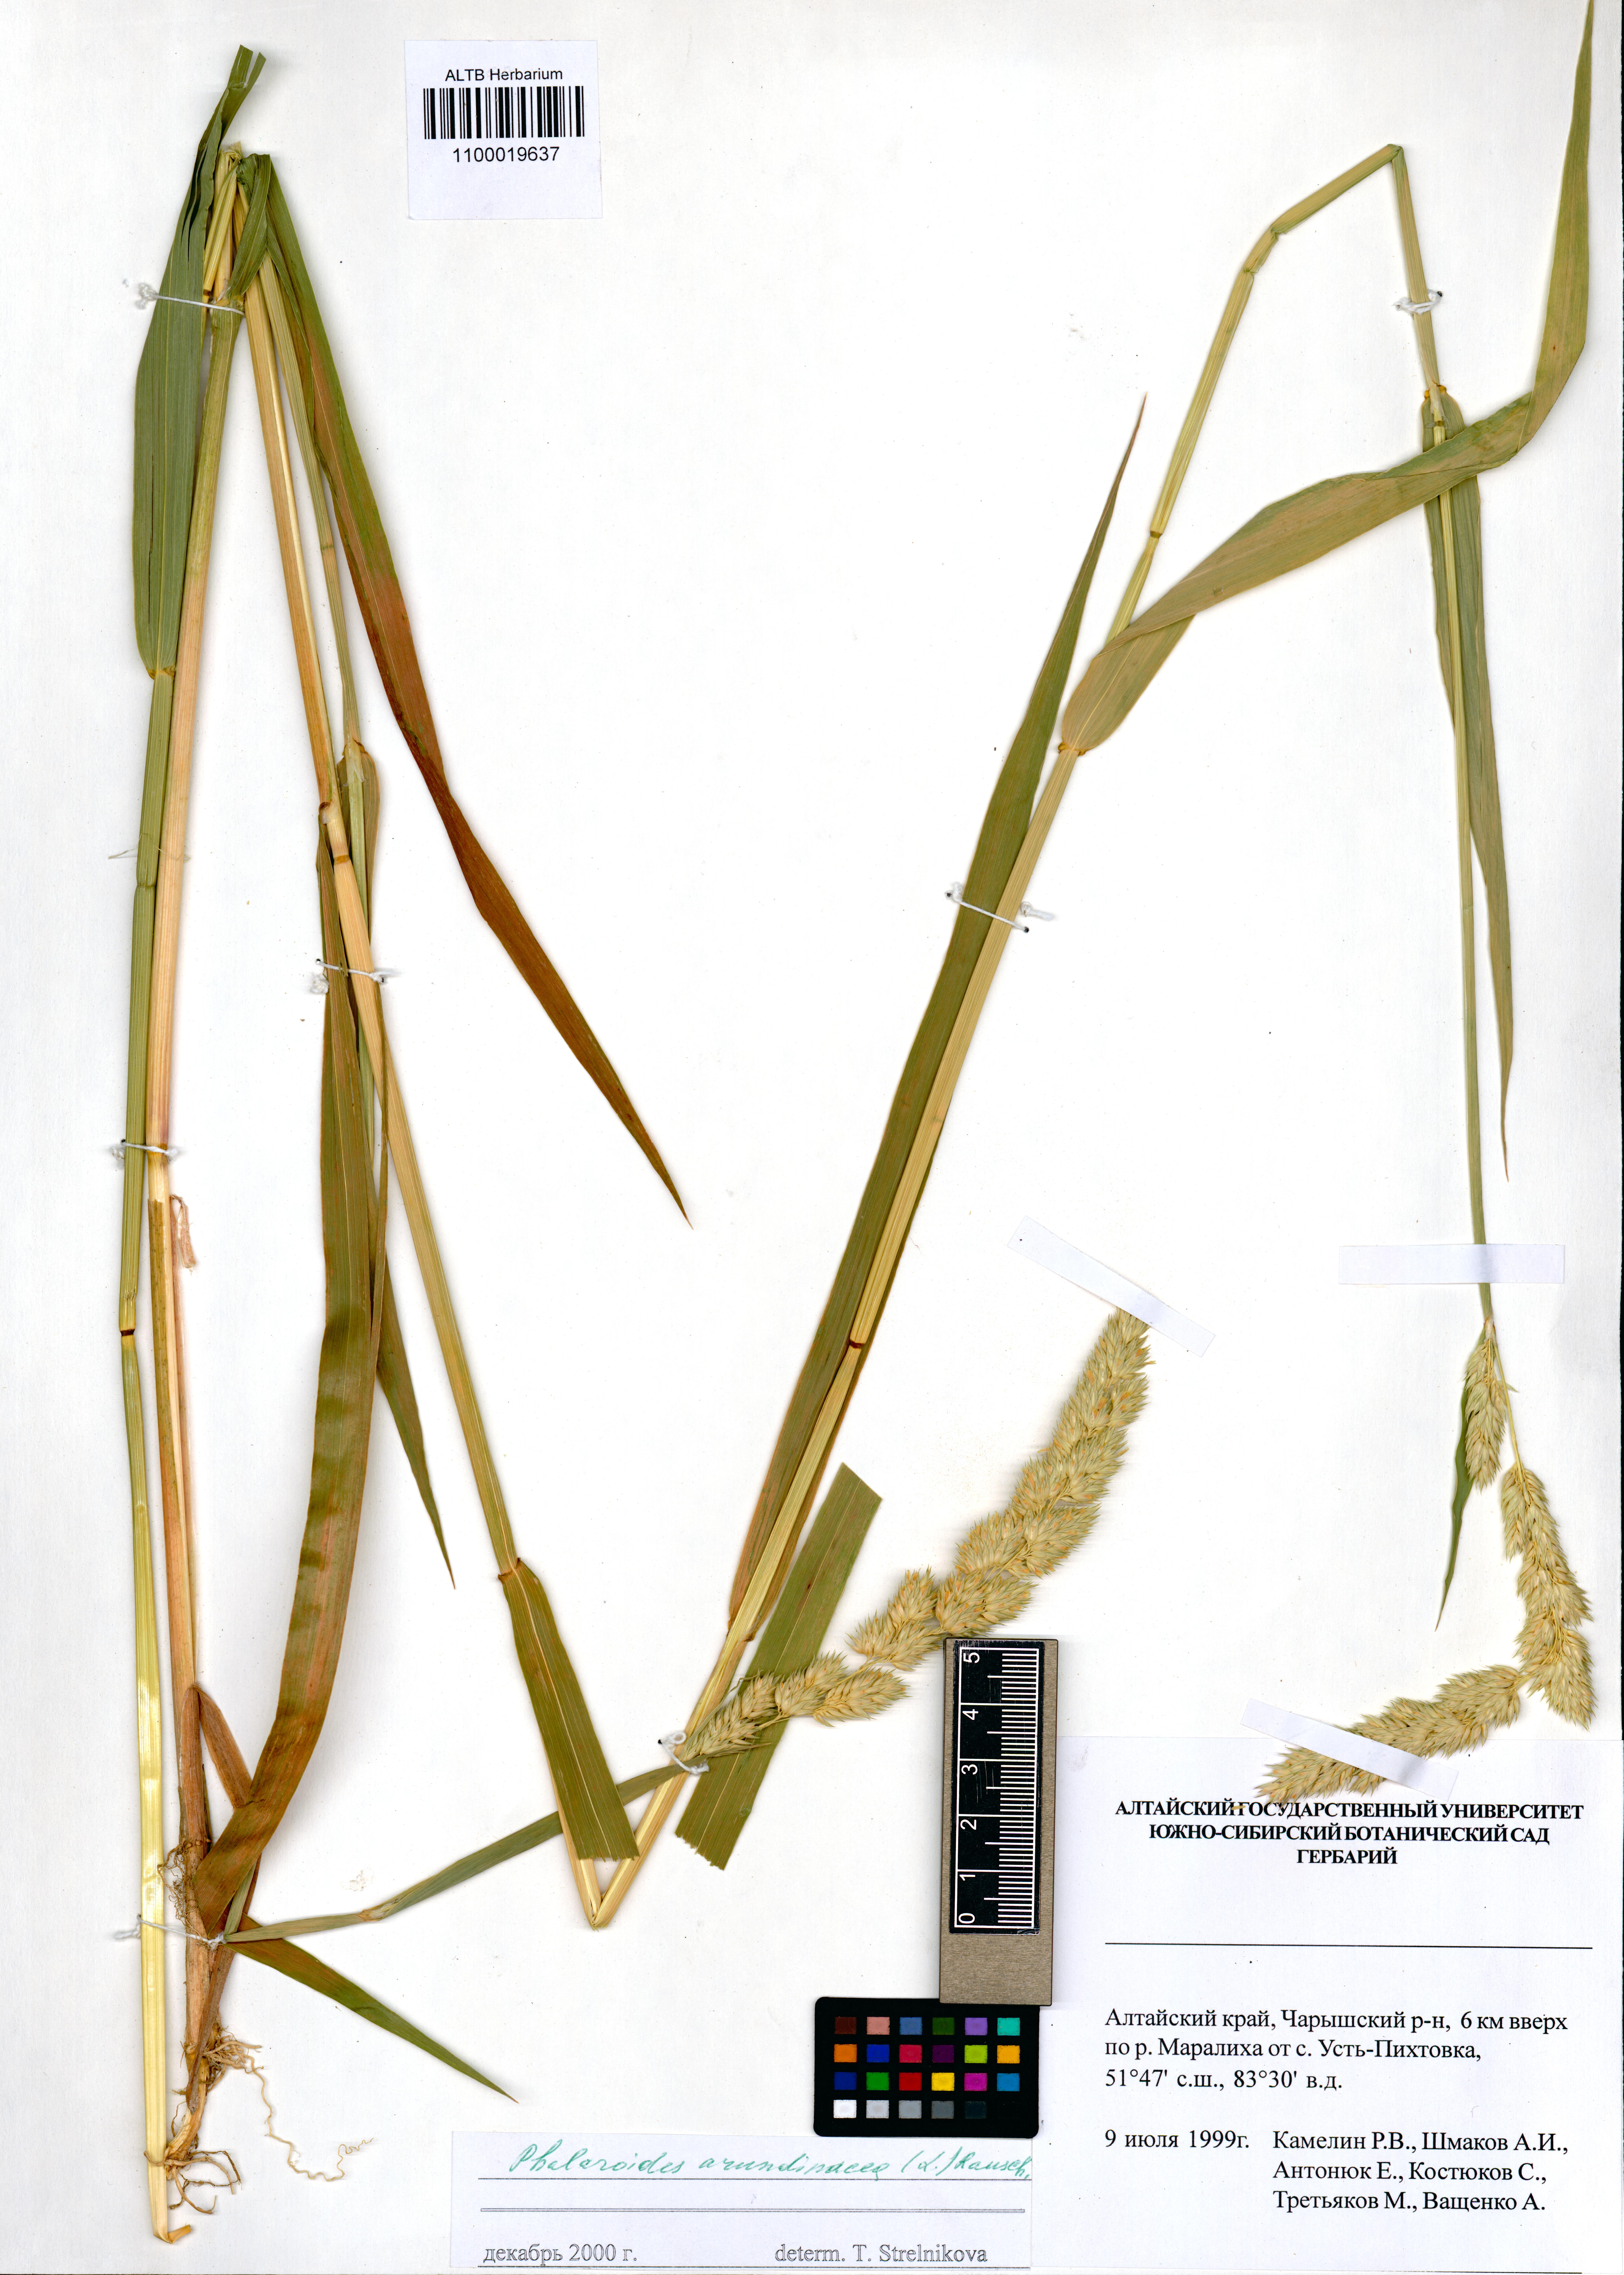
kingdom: Plantae
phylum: Tracheophyta
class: Liliopsida
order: Poales
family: Poaceae
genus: Phalaris
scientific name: Phalaris arundinacea
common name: Reed canary-grass
